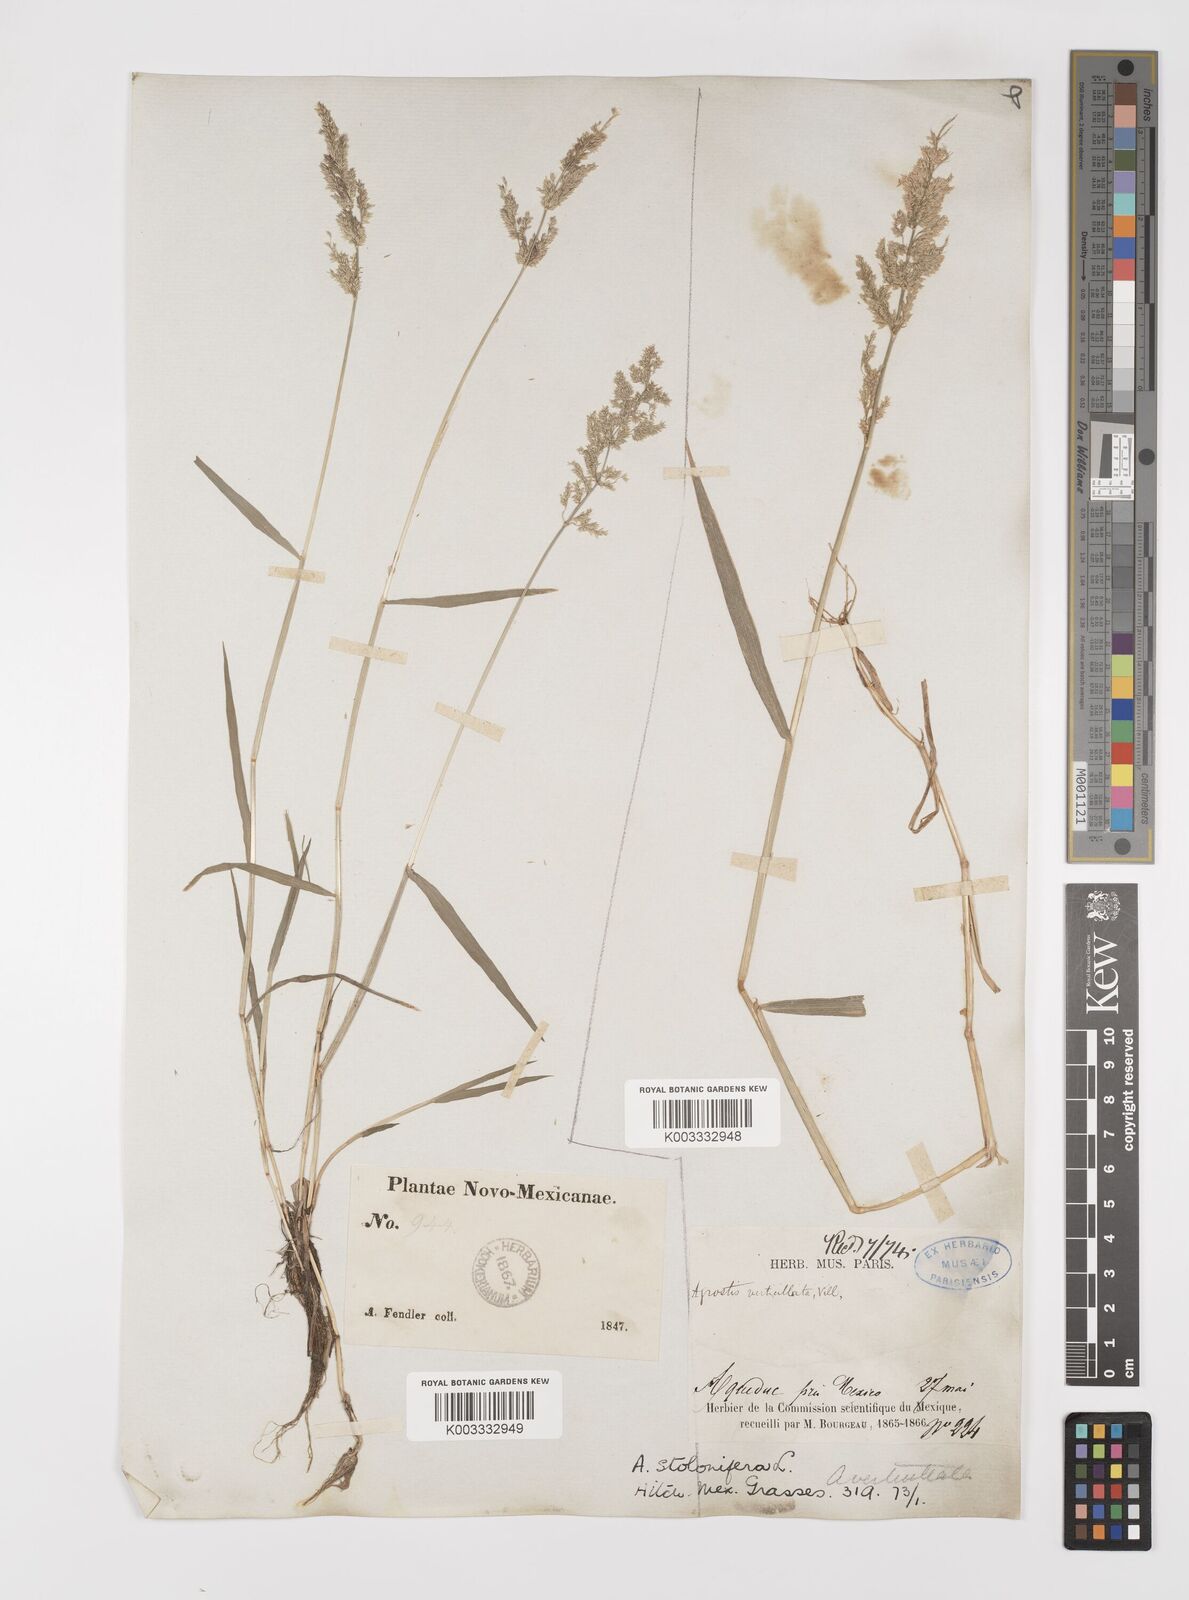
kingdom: Plantae
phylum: Tracheophyta
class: Liliopsida
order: Poales
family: Poaceae
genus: Polypogon
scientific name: Polypogon viridis
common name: Water bent
